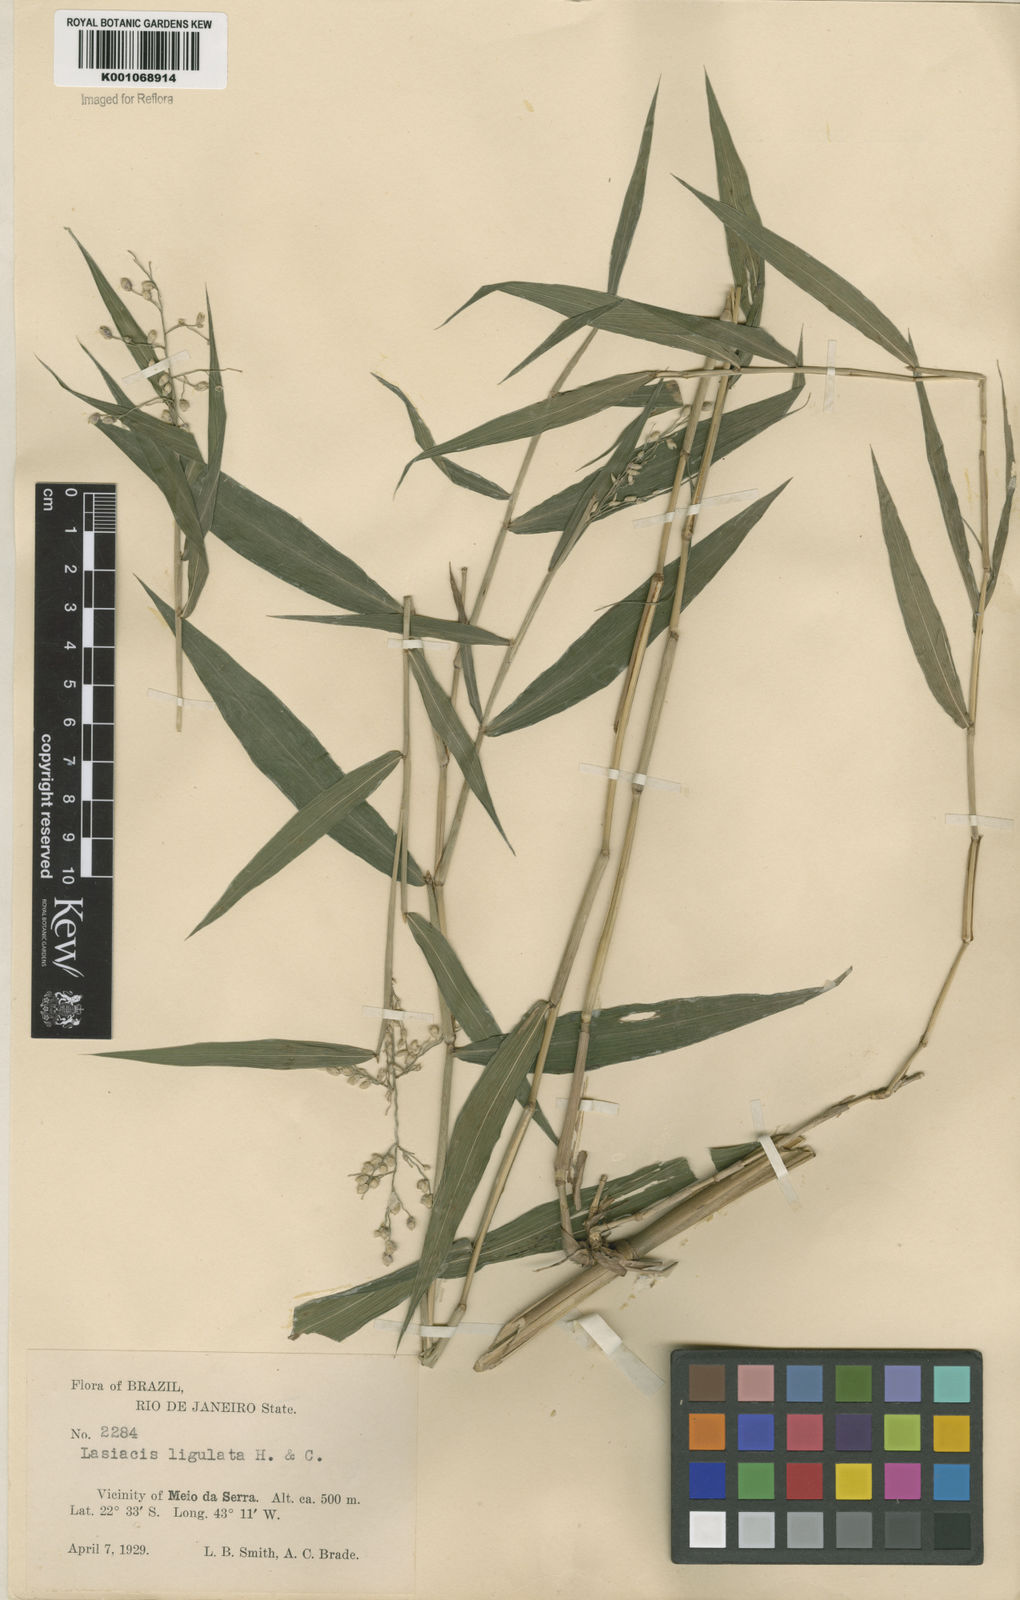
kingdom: Plantae
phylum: Tracheophyta
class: Liliopsida
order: Poales
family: Poaceae
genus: Lasiacis
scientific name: Lasiacis ligulata
